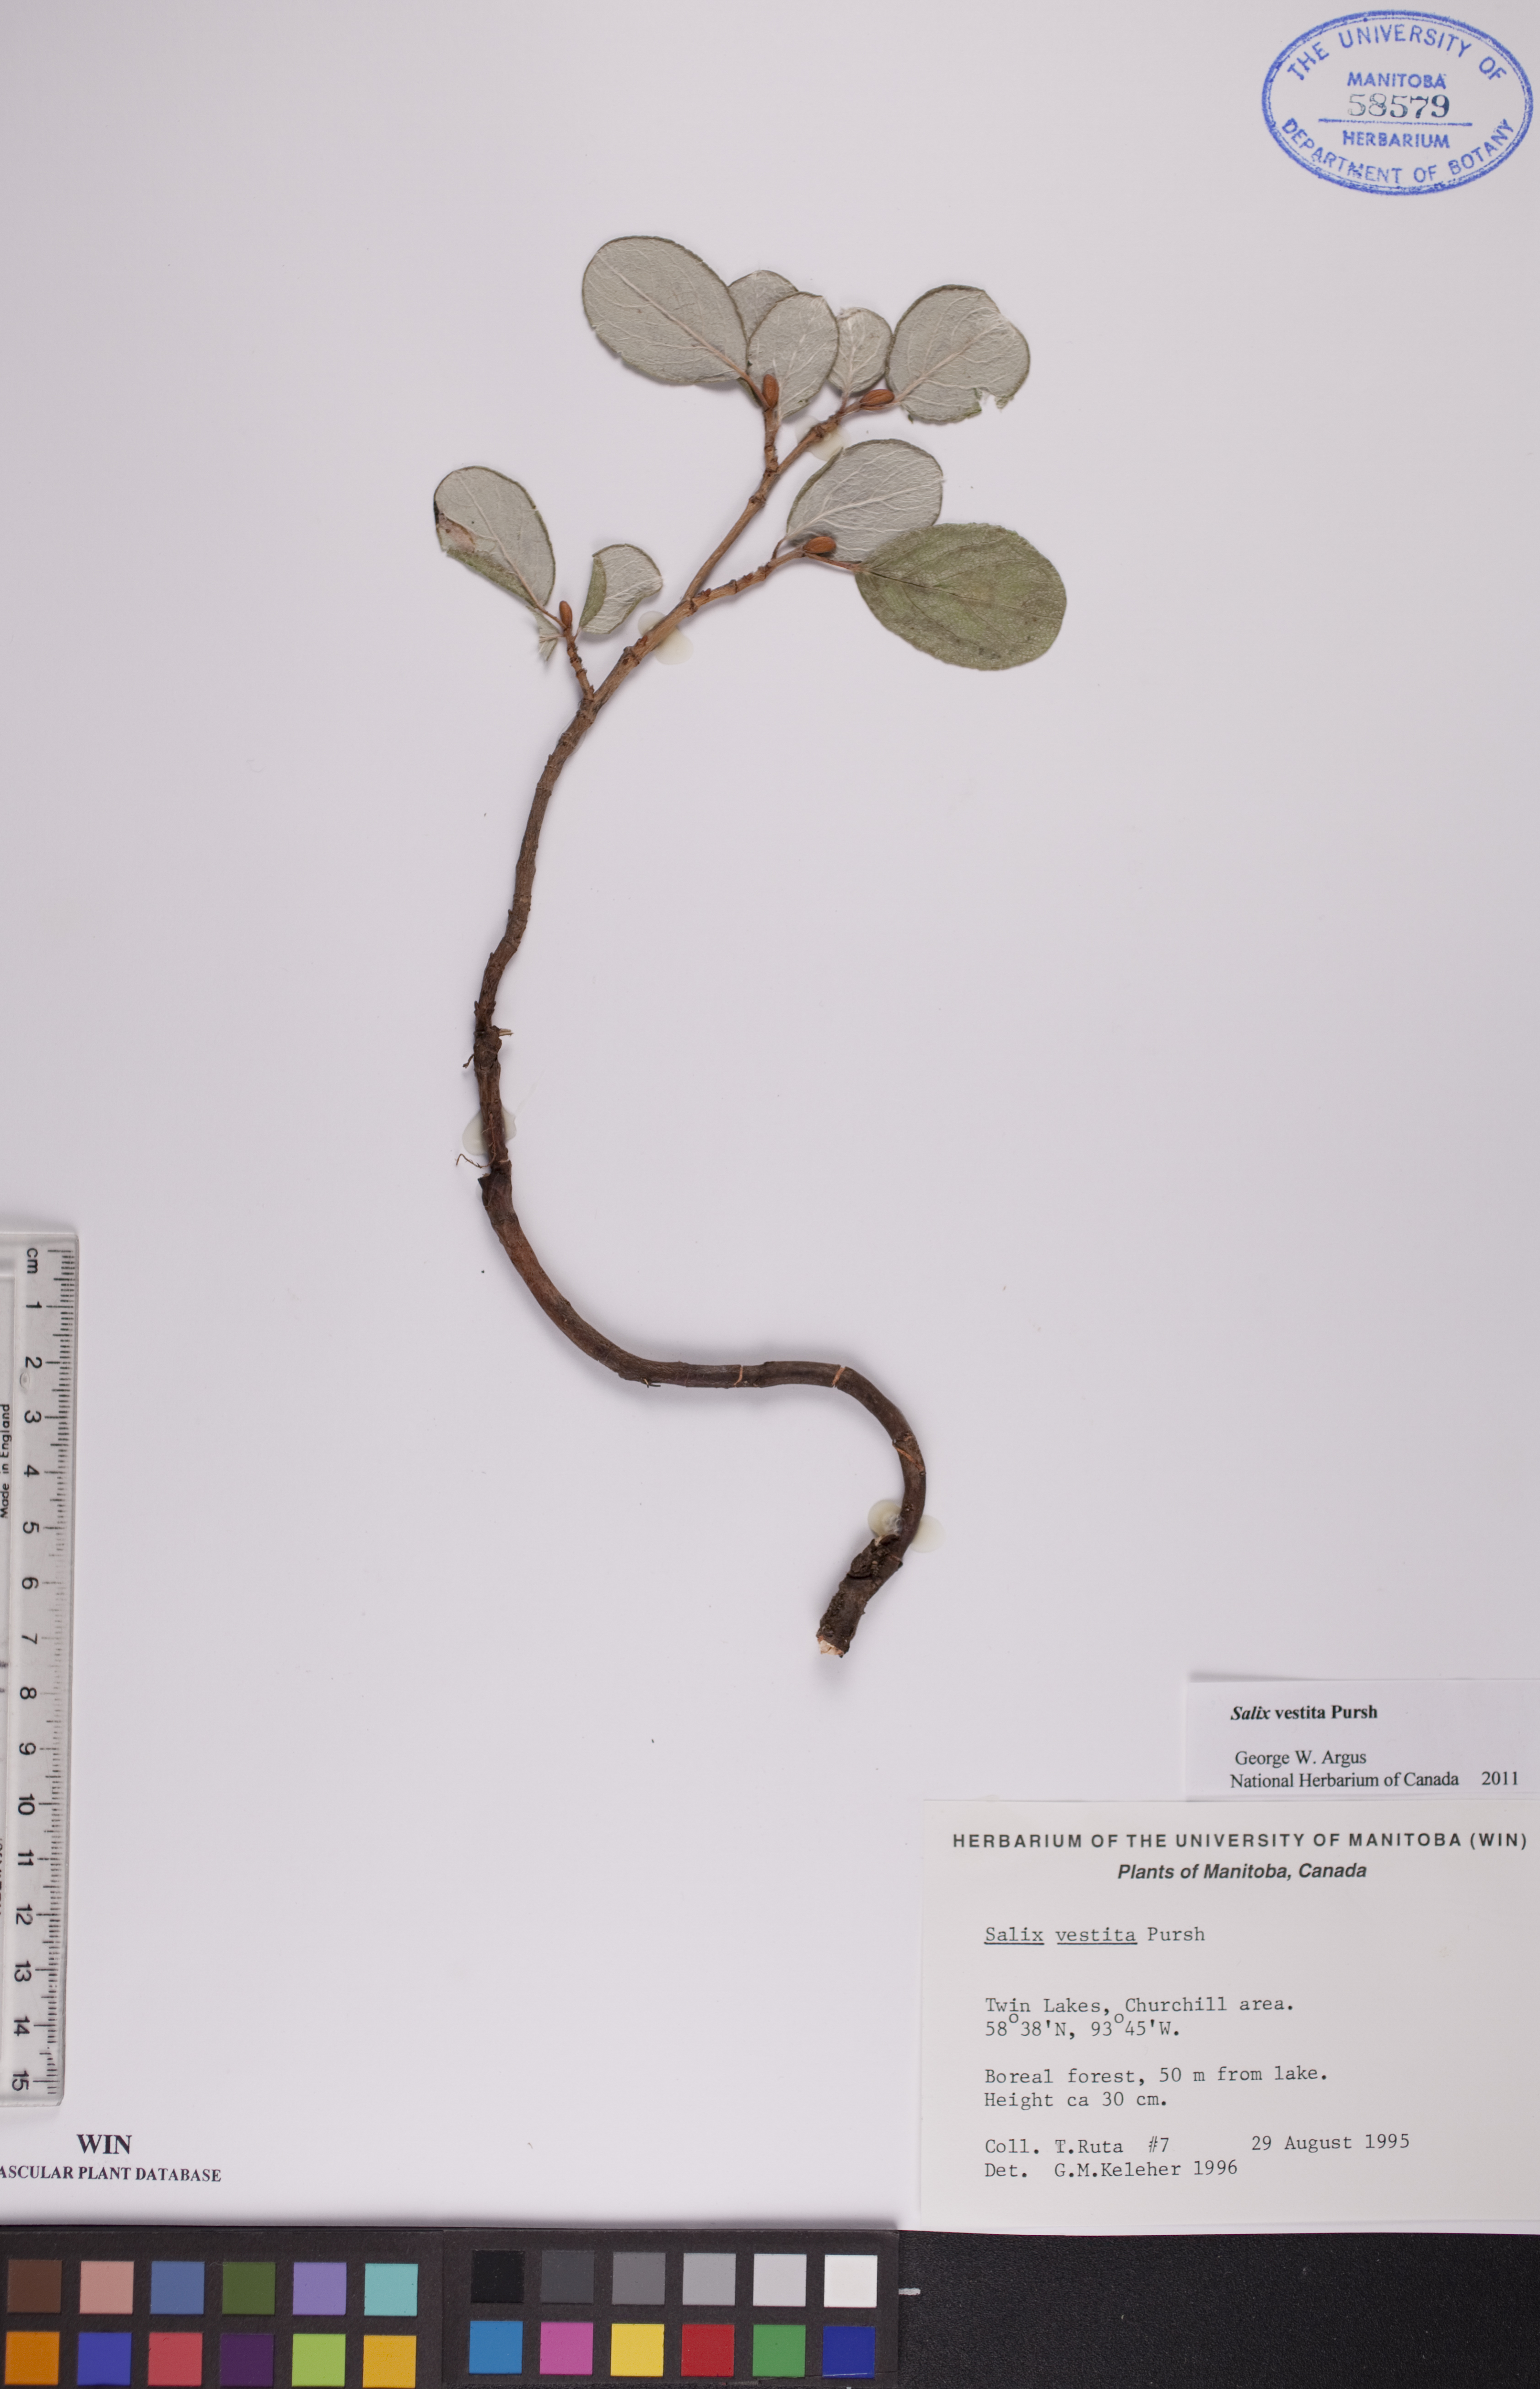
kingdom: Plantae
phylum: Tracheophyta
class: Magnoliopsida
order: Malpighiales
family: Salicaceae
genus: Salix
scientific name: Salix vestita
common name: Hairy willow
